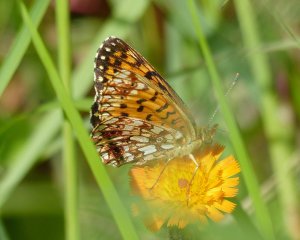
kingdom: Animalia
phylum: Arthropoda
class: Insecta
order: Lepidoptera
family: Nymphalidae
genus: Boloria
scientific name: Boloria selene
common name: Silver-bordered Fritillary
